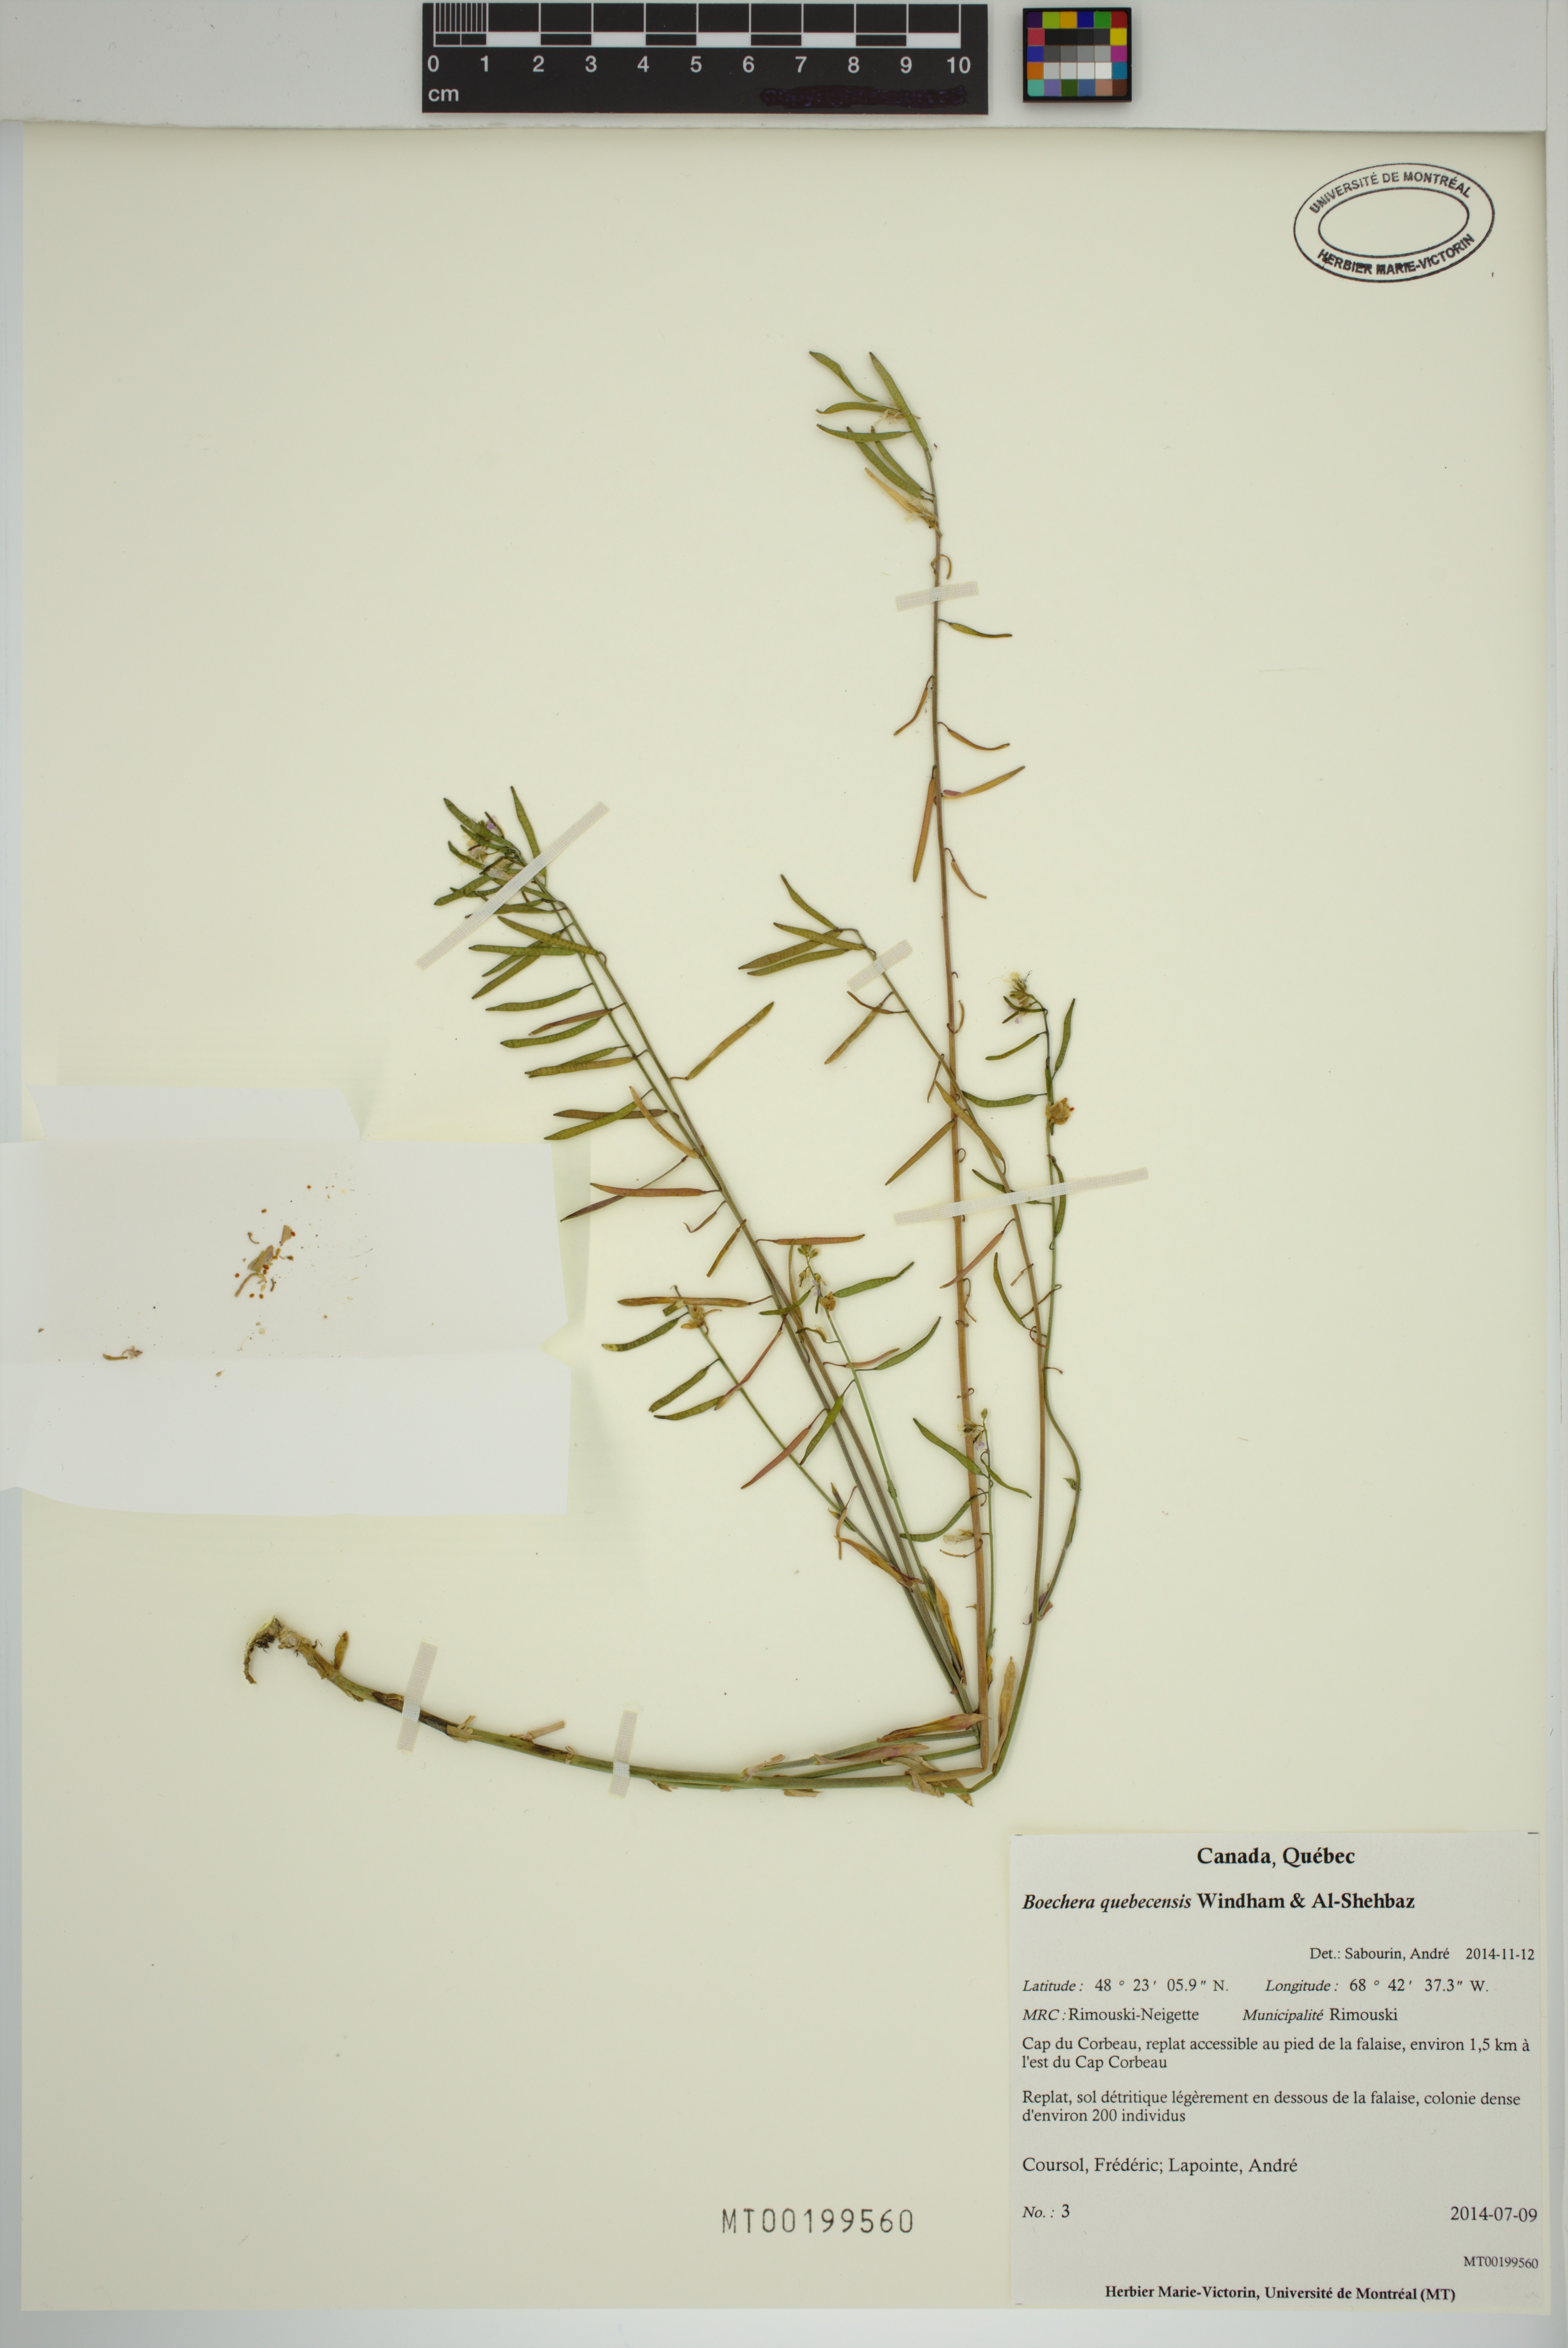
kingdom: Plantae
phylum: Tracheophyta
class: Magnoliopsida
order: Brassicales
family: Brassicaceae
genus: Boechera
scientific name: Boechera
